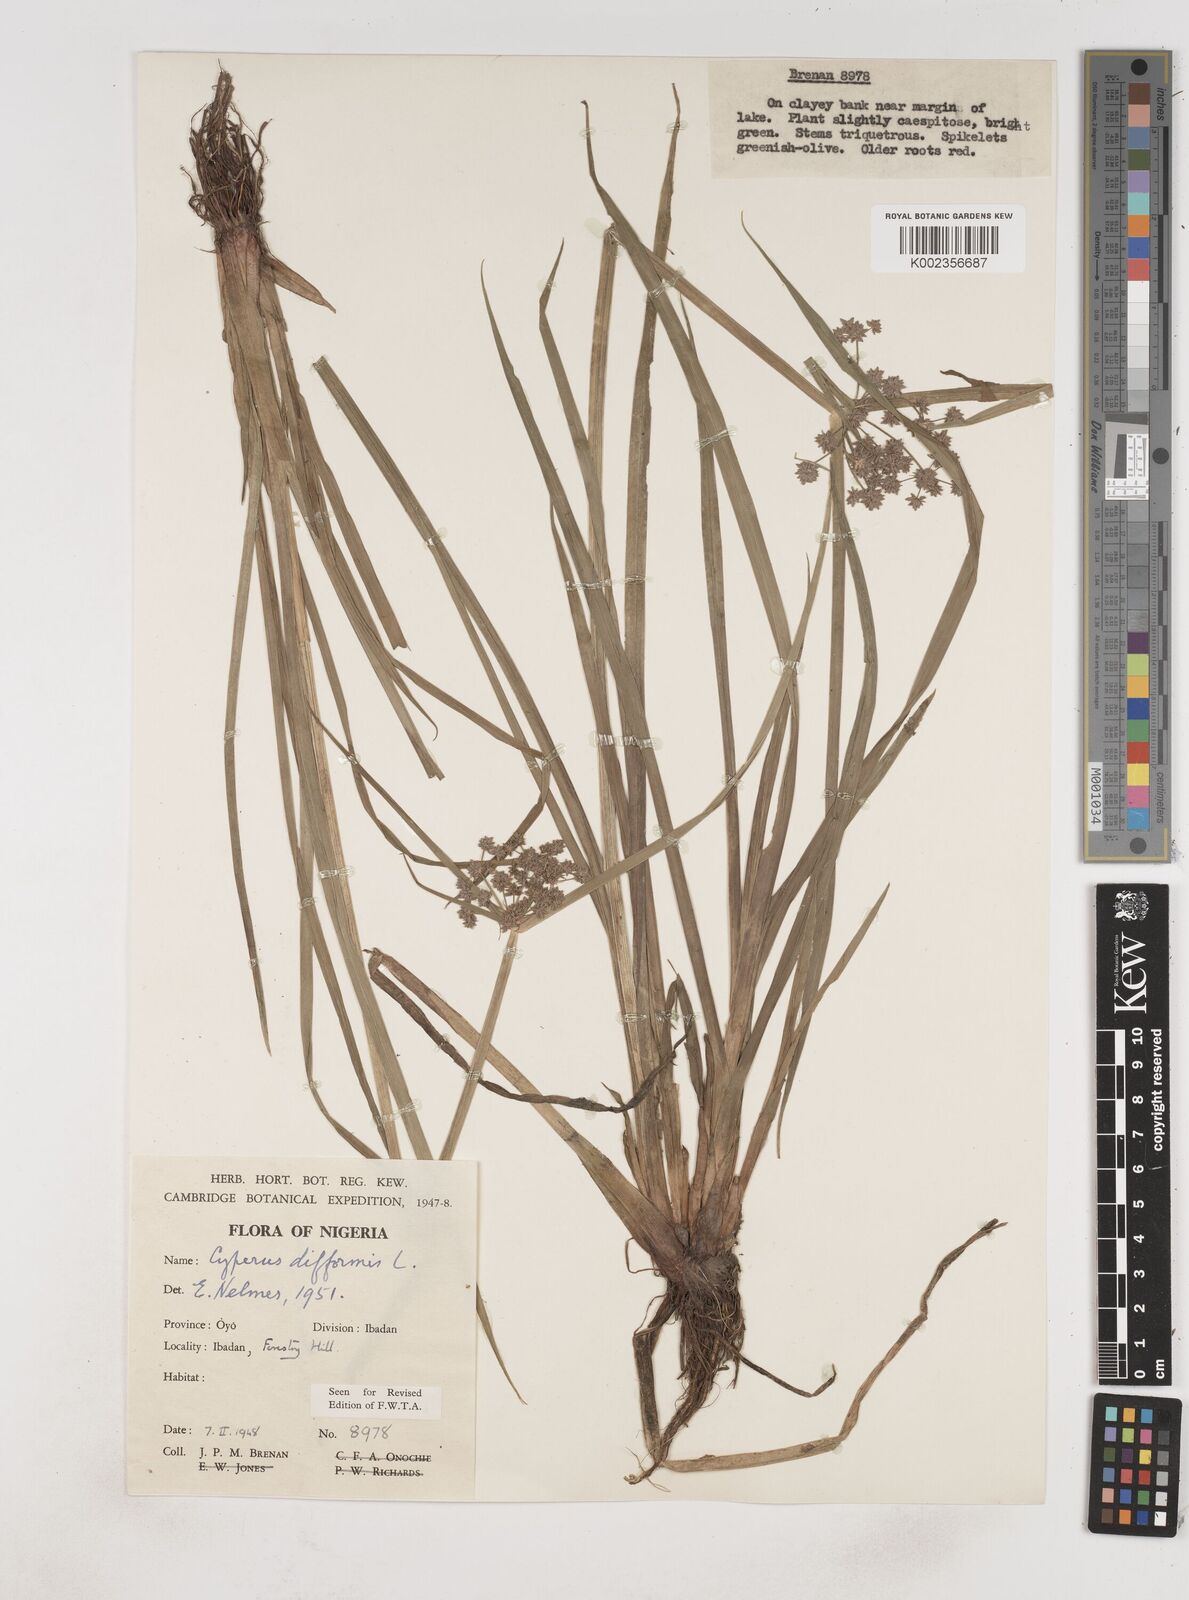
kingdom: Plantae
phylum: Tracheophyta
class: Liliopsida
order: Poales
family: Cyperaceae
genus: Cyperus
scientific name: Cyperus difformis
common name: Variable flatsedge
